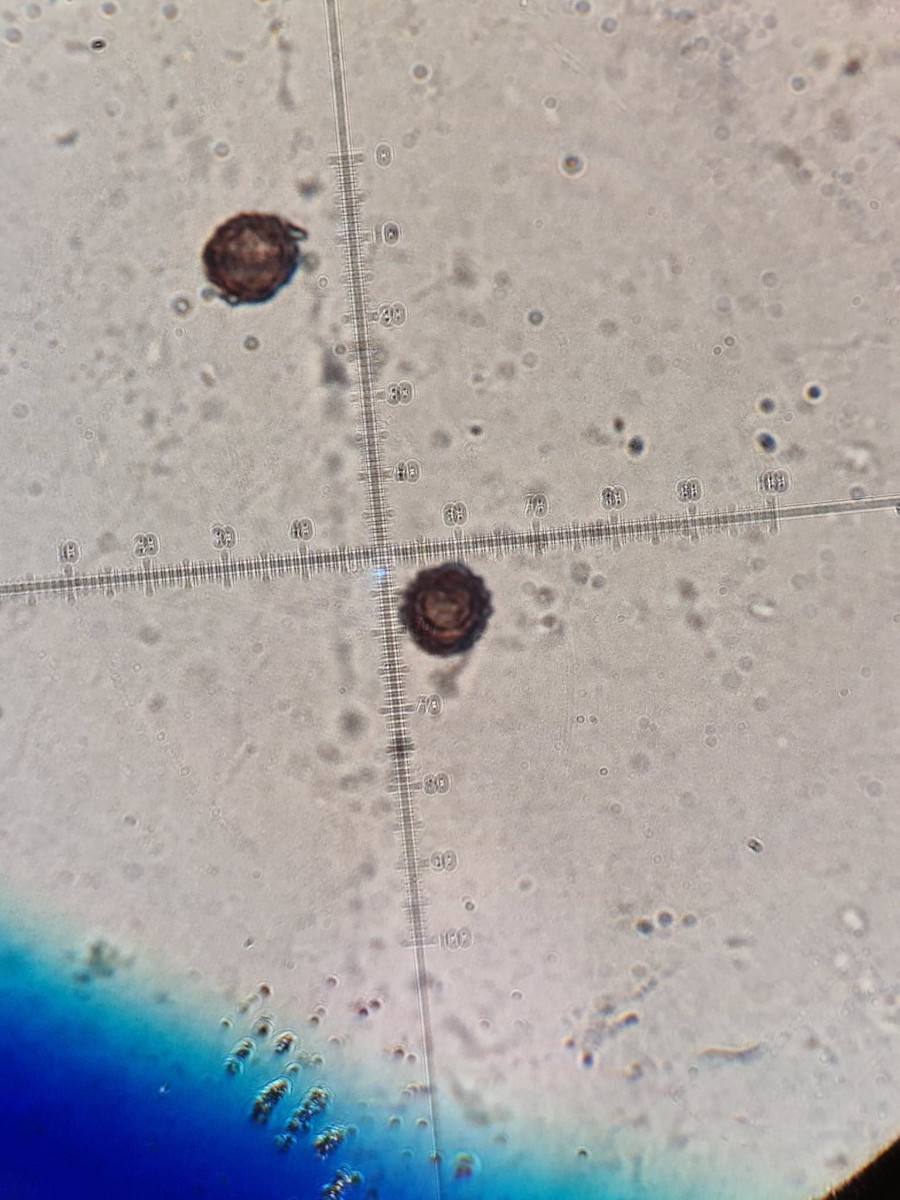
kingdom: Fungi
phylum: Basidiomycota
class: Agaricomycetes
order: Boletales
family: Sclerodermataceae
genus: Scleroderma
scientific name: Scleroderma verrucosum
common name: stilket bruskbold
